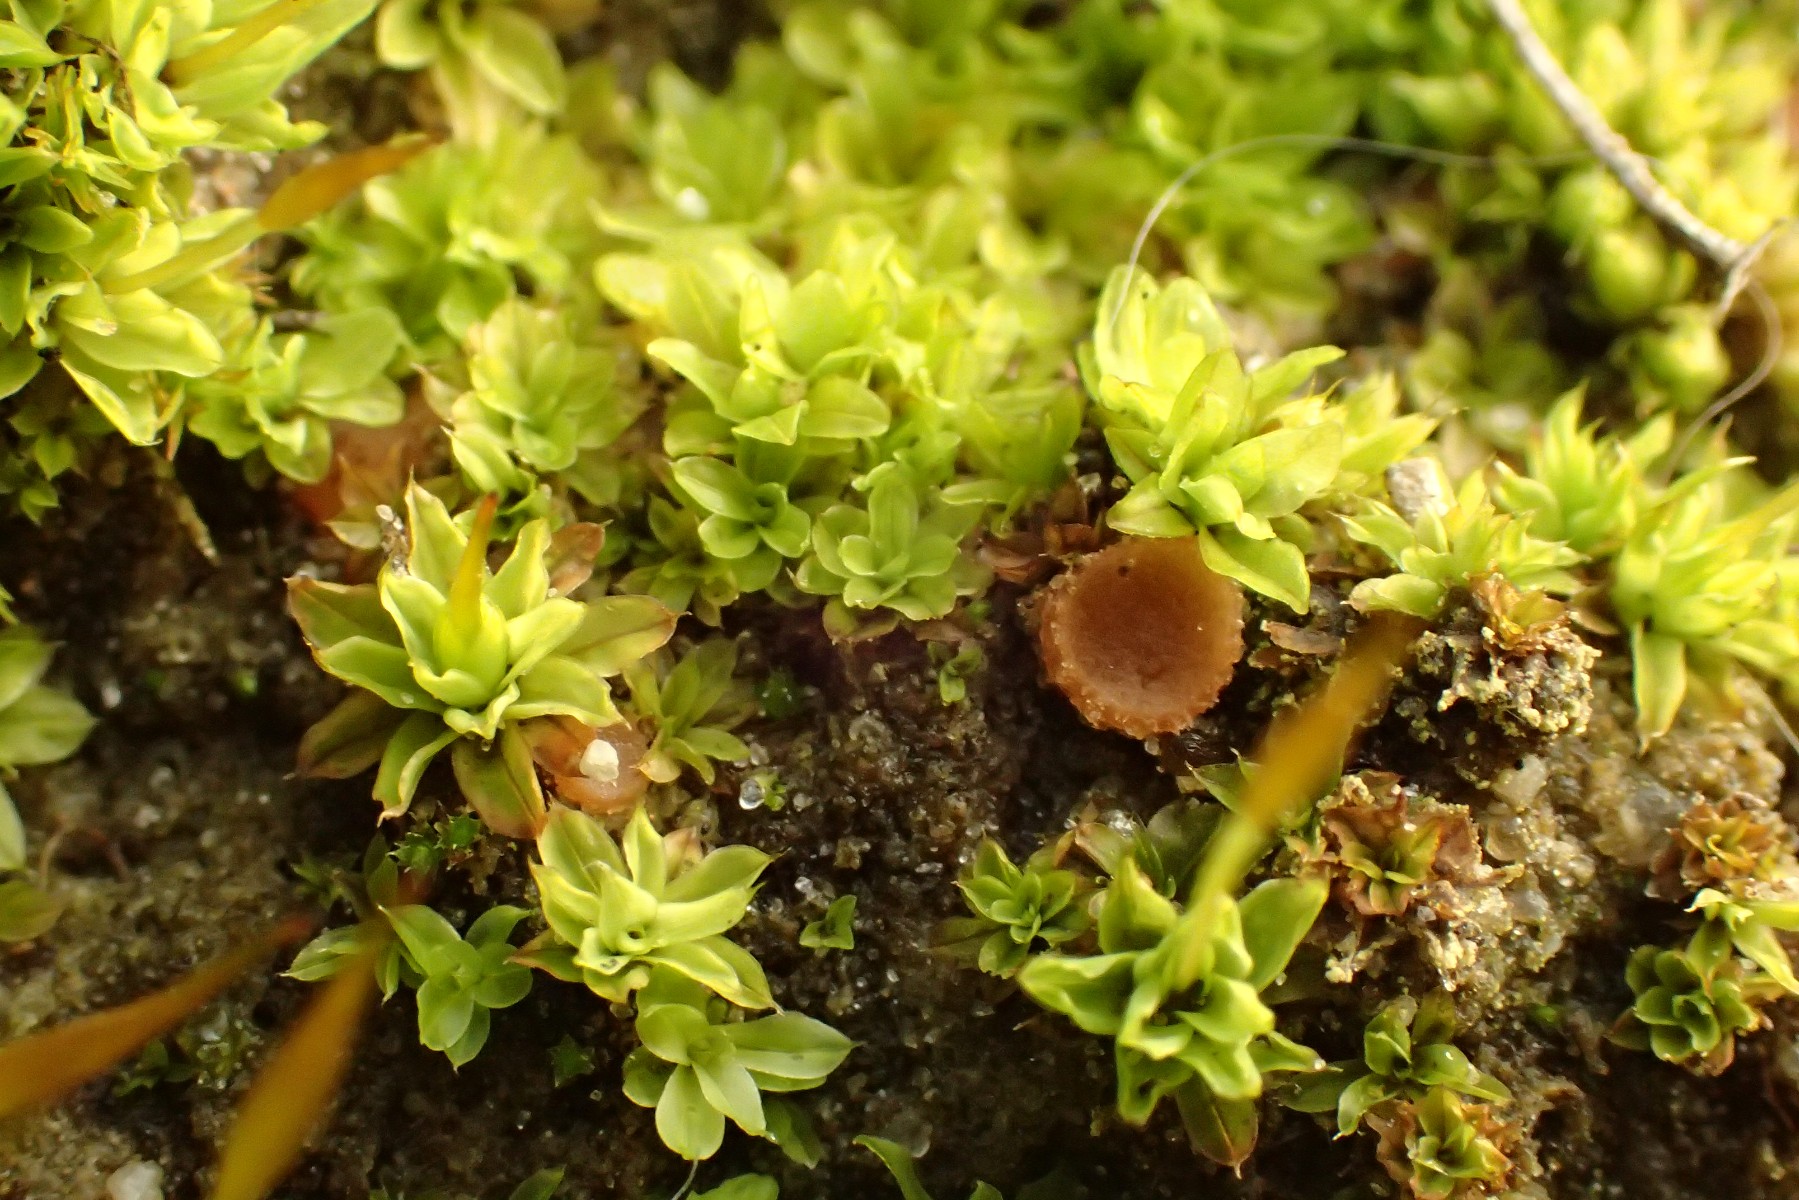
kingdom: Fungi
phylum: Ascomycota
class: Pezizomycetes
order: Pezizales
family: Pyronemataceae
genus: Octospora
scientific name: Octospora similis
